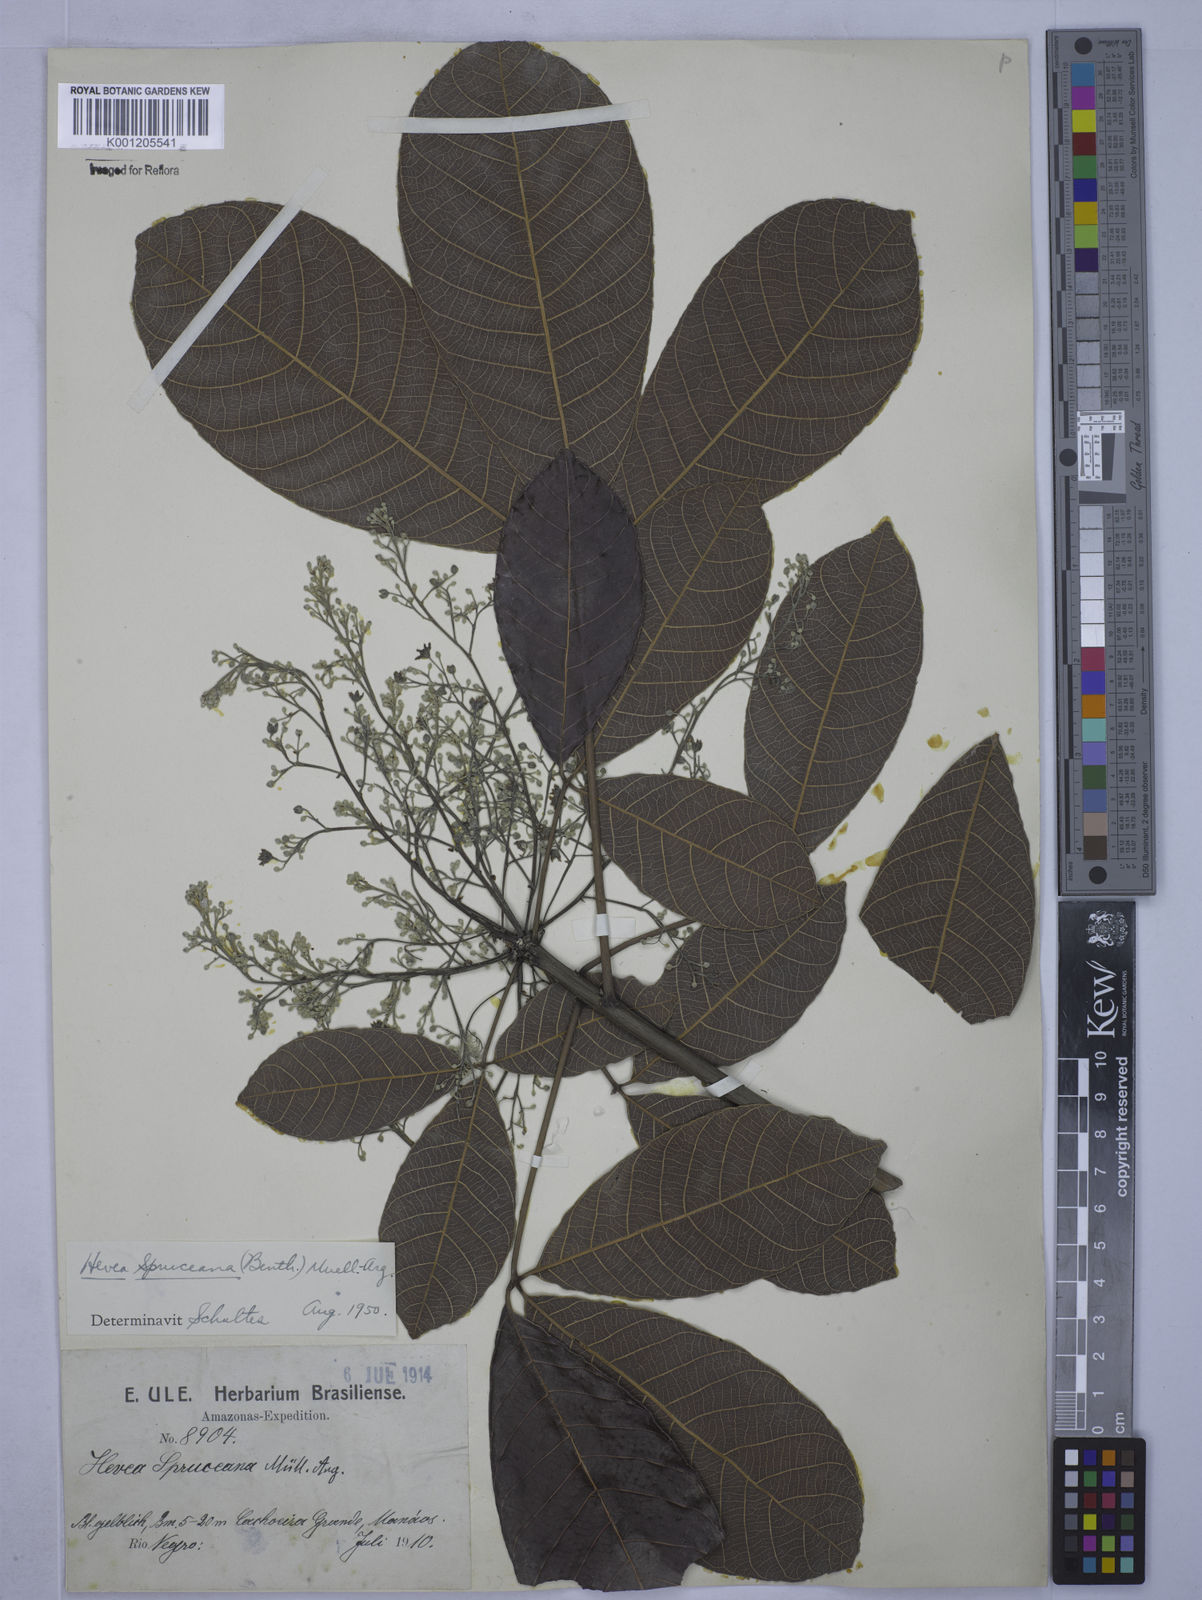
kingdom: Plantae
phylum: Tracheophyta
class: Magnoliopsida
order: Malpighiales
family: Euphorbiaceae
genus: Hevea
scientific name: Hevea
